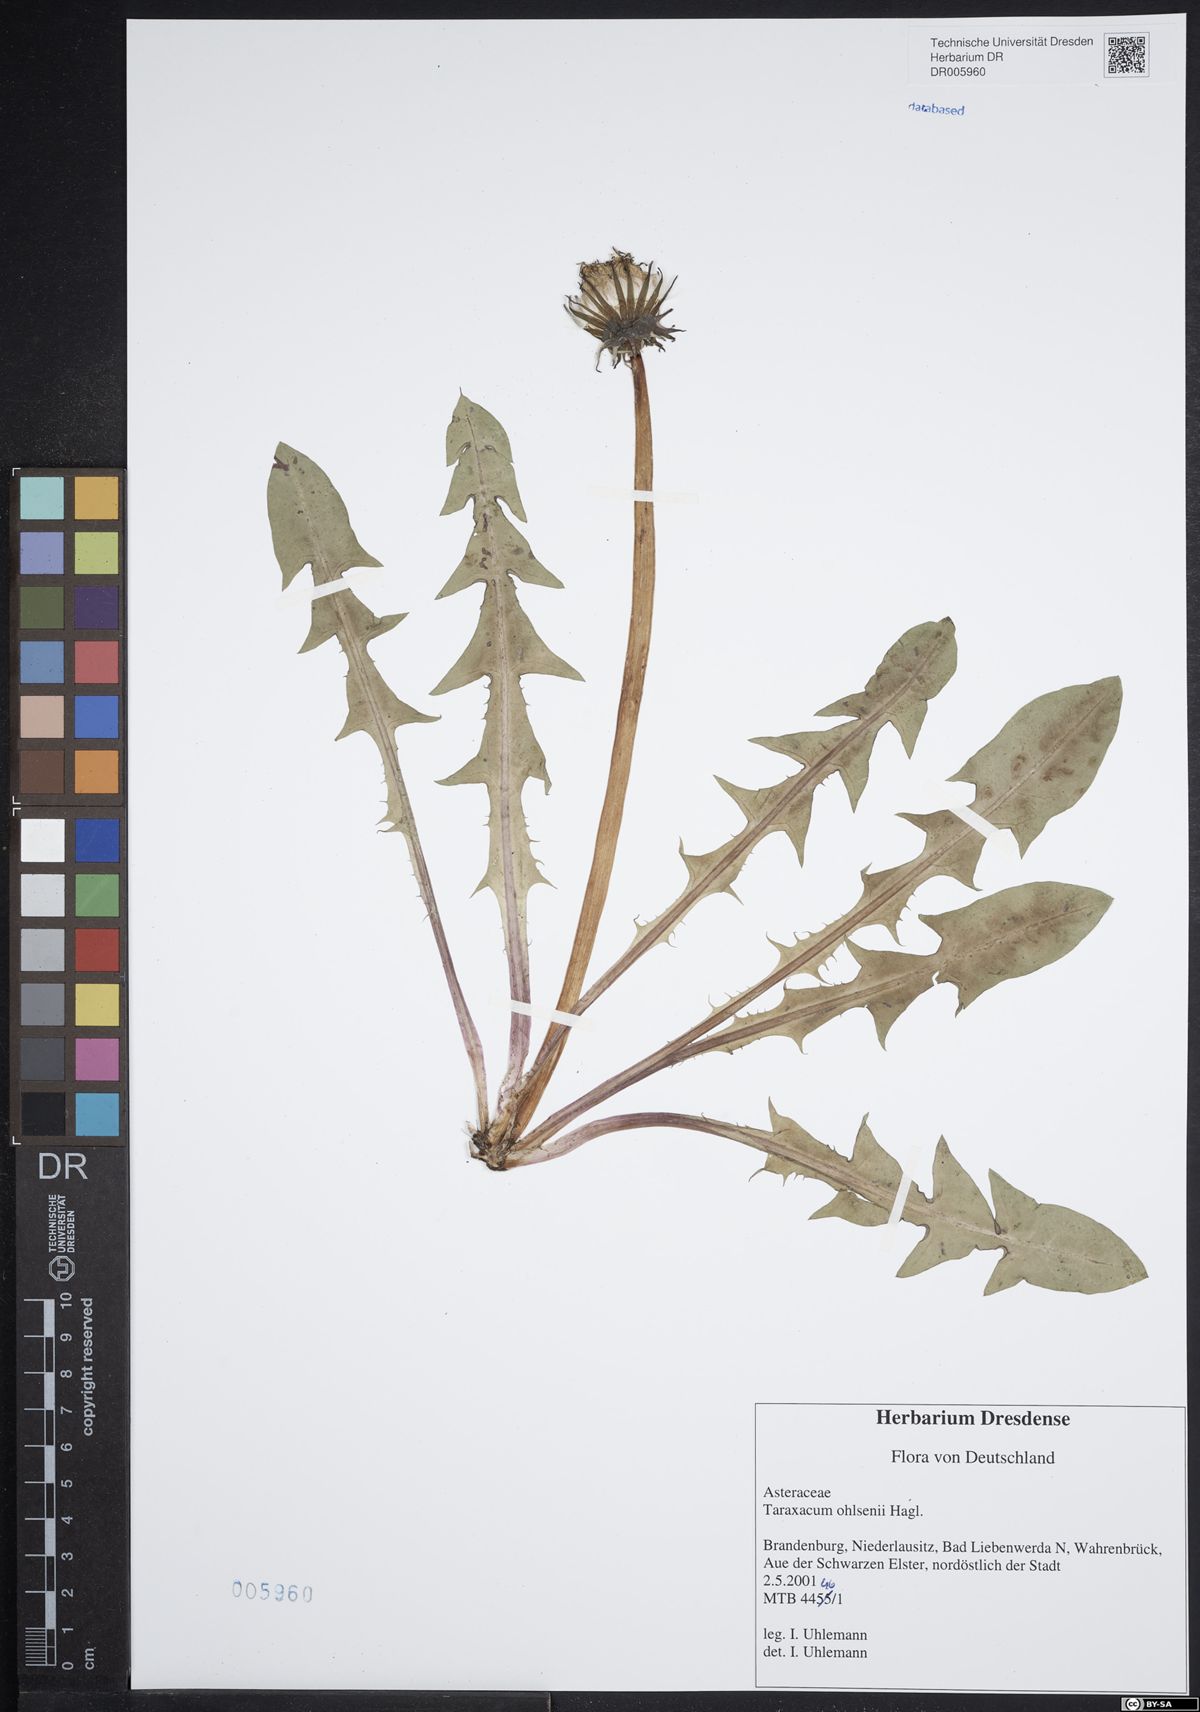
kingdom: Plantae
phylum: Tracheophyta
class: Magnoliopsida
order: Asterales
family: Asteraceae
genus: Taraxacum
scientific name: Taraxacum ohlsenii
